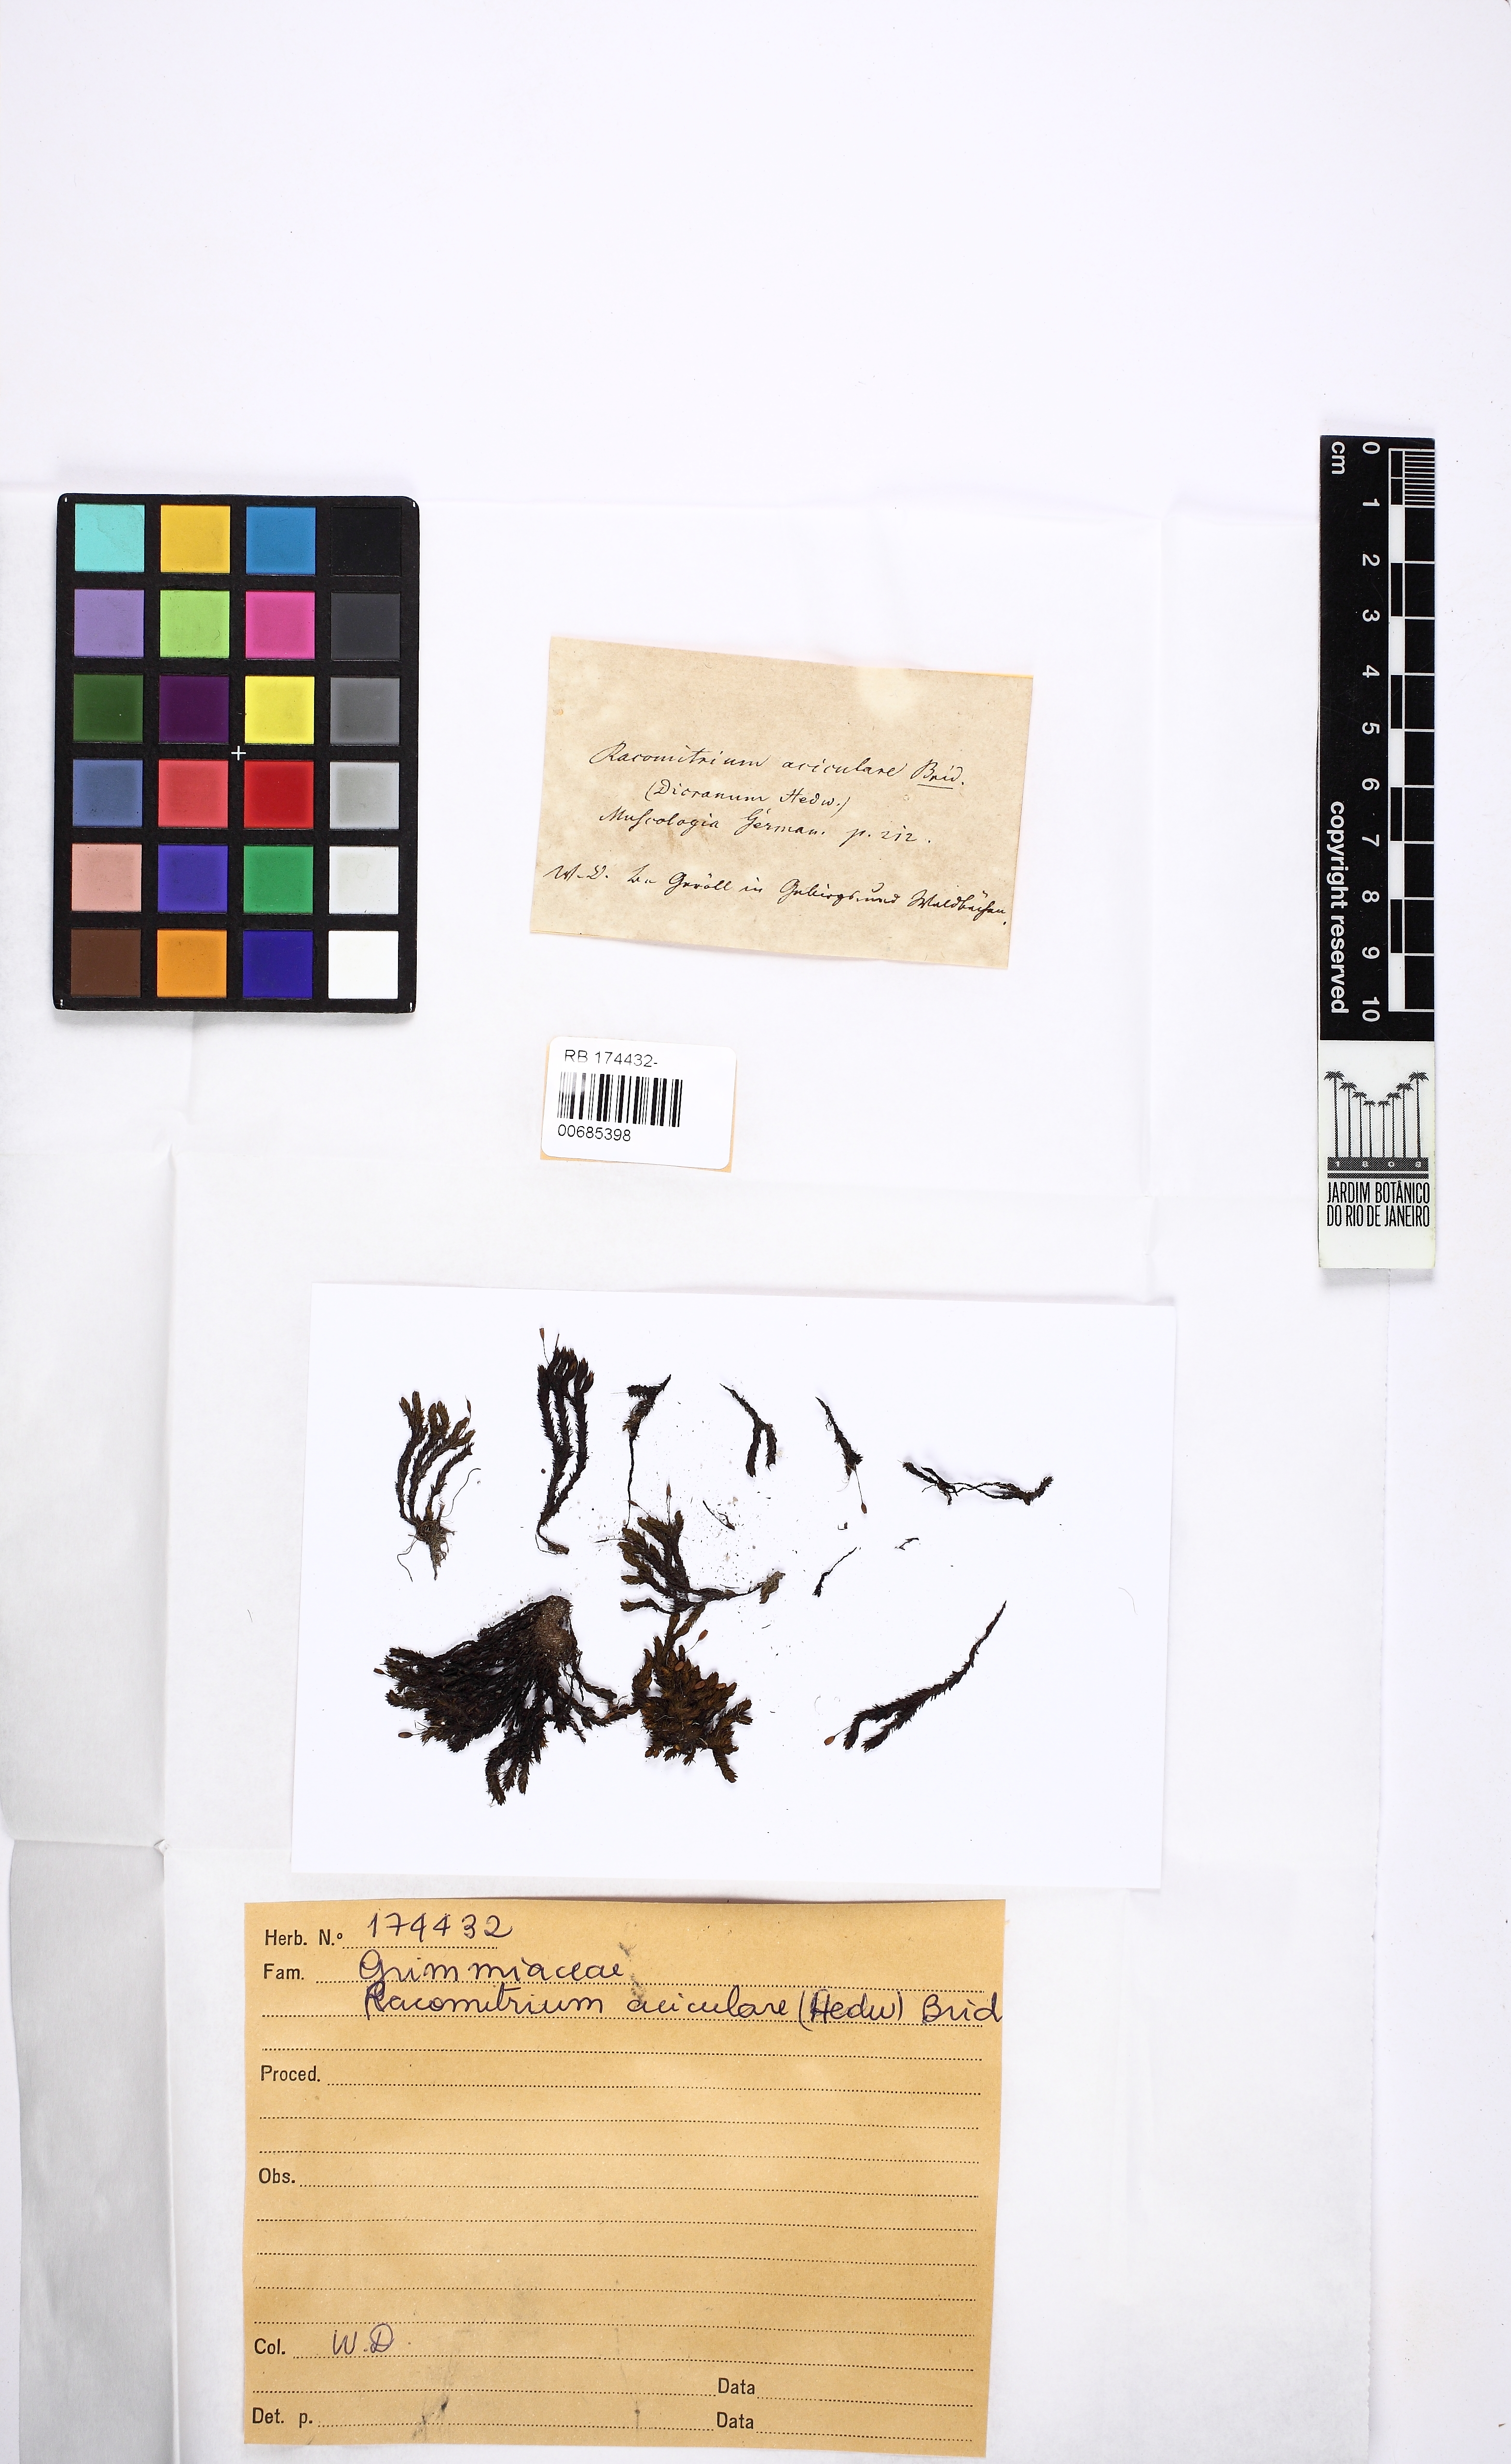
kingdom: Plantae
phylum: Bryophyta
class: Bryopsida
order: Grimmiales
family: Grimmiaceae
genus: Codriophorus
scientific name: Codriophorus acicularis
